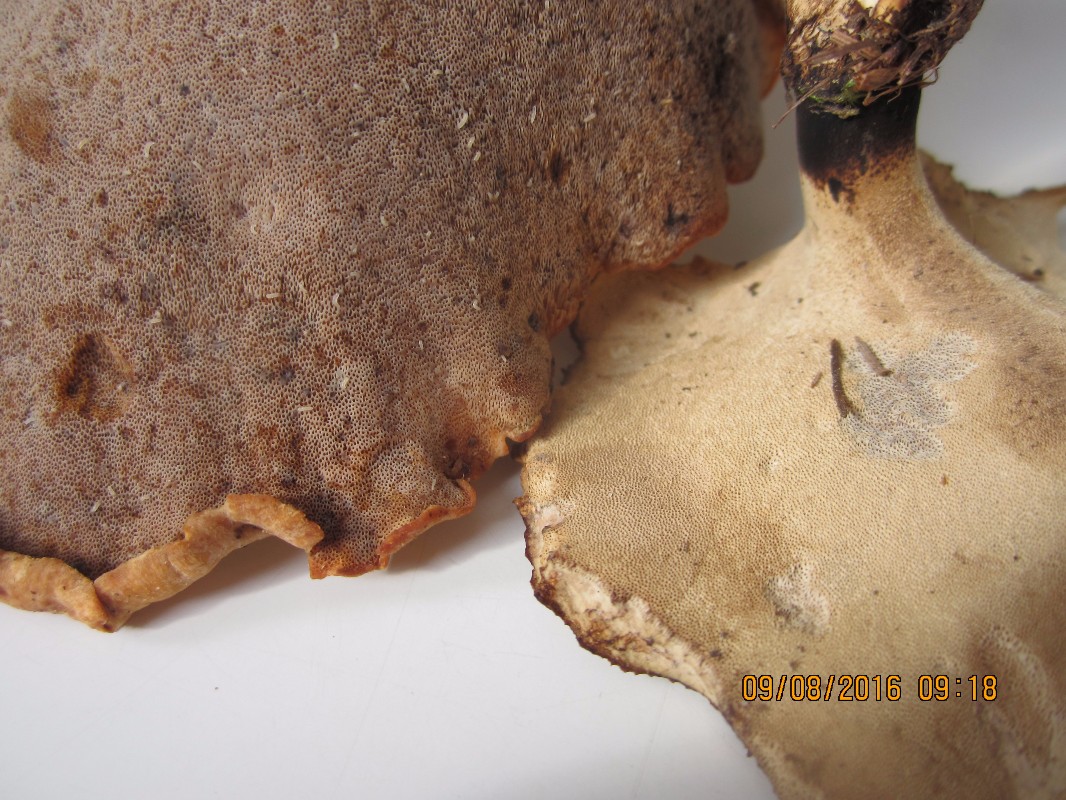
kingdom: Fungi
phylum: Basidiomycota
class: Agaricomycetes
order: Polyporales
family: Polyporaceae
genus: Cerioporus
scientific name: Cerioporus varius
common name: foranderlig stilkporesvamp
